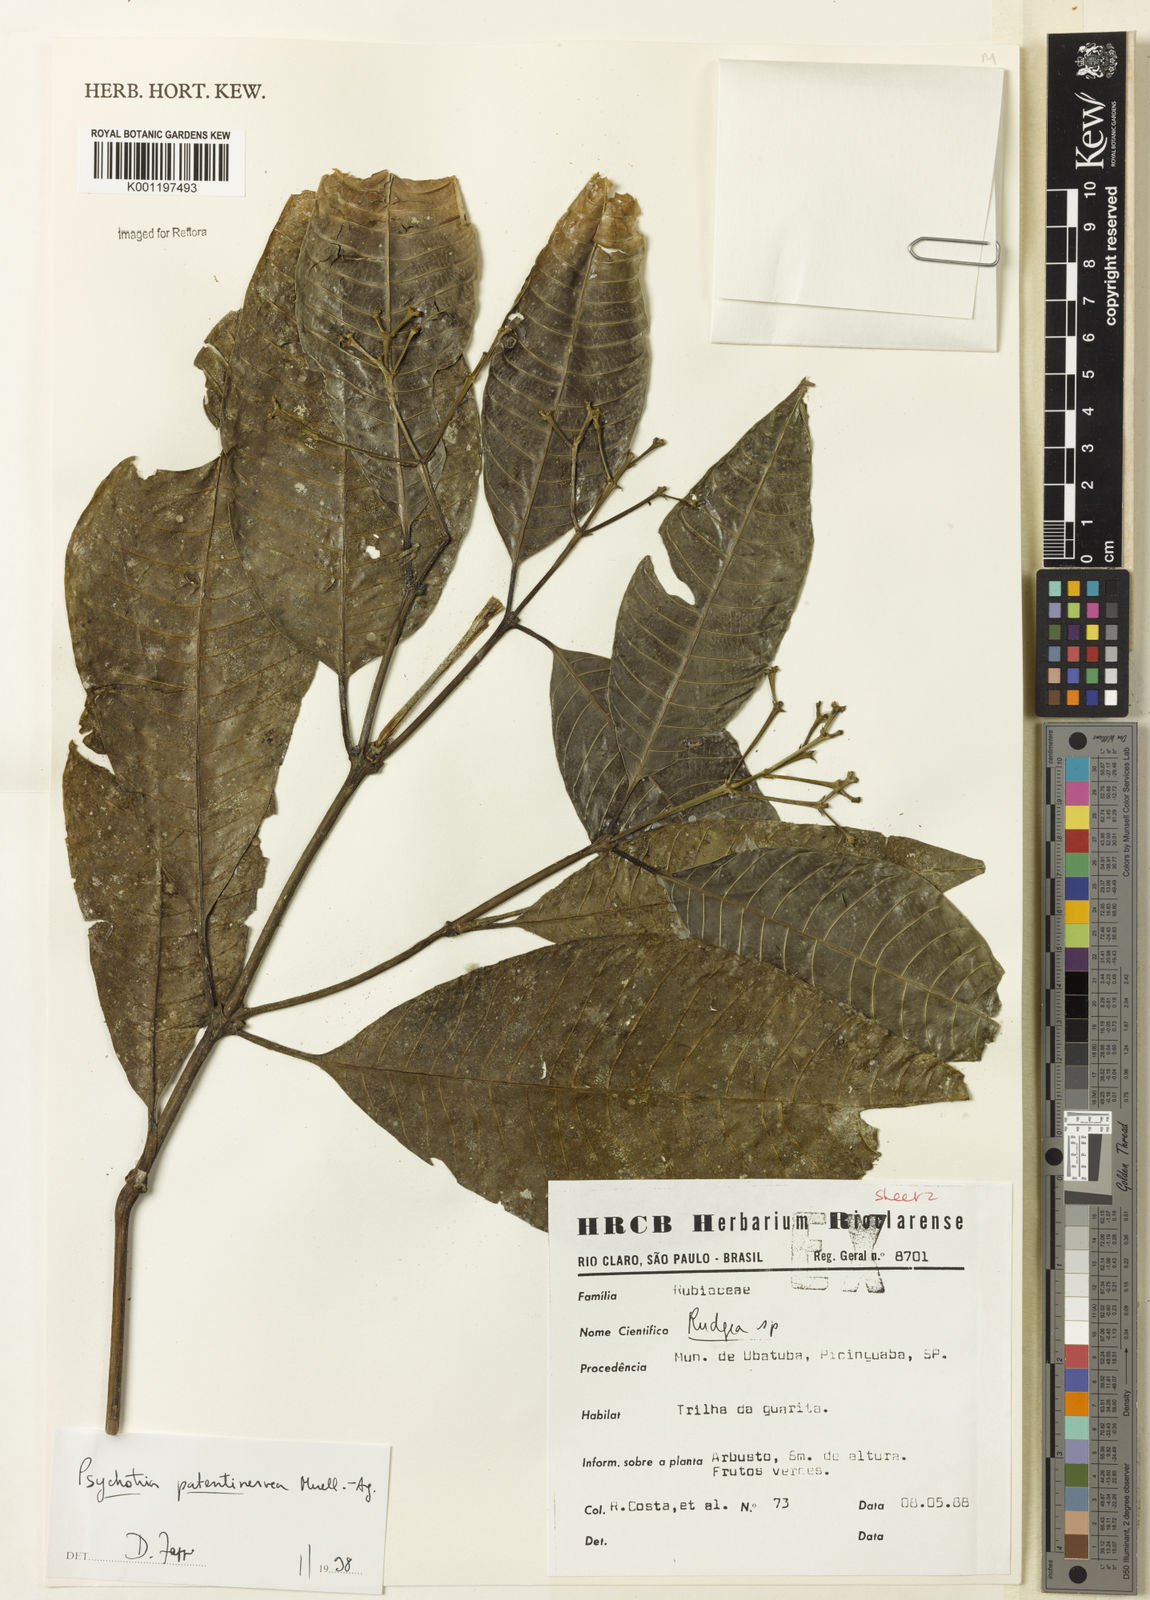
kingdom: Plantae
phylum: Tracheophyta
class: Magnoliopsida
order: Gentianales
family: Rubiaceae
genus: Psychotria
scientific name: Psychotria
